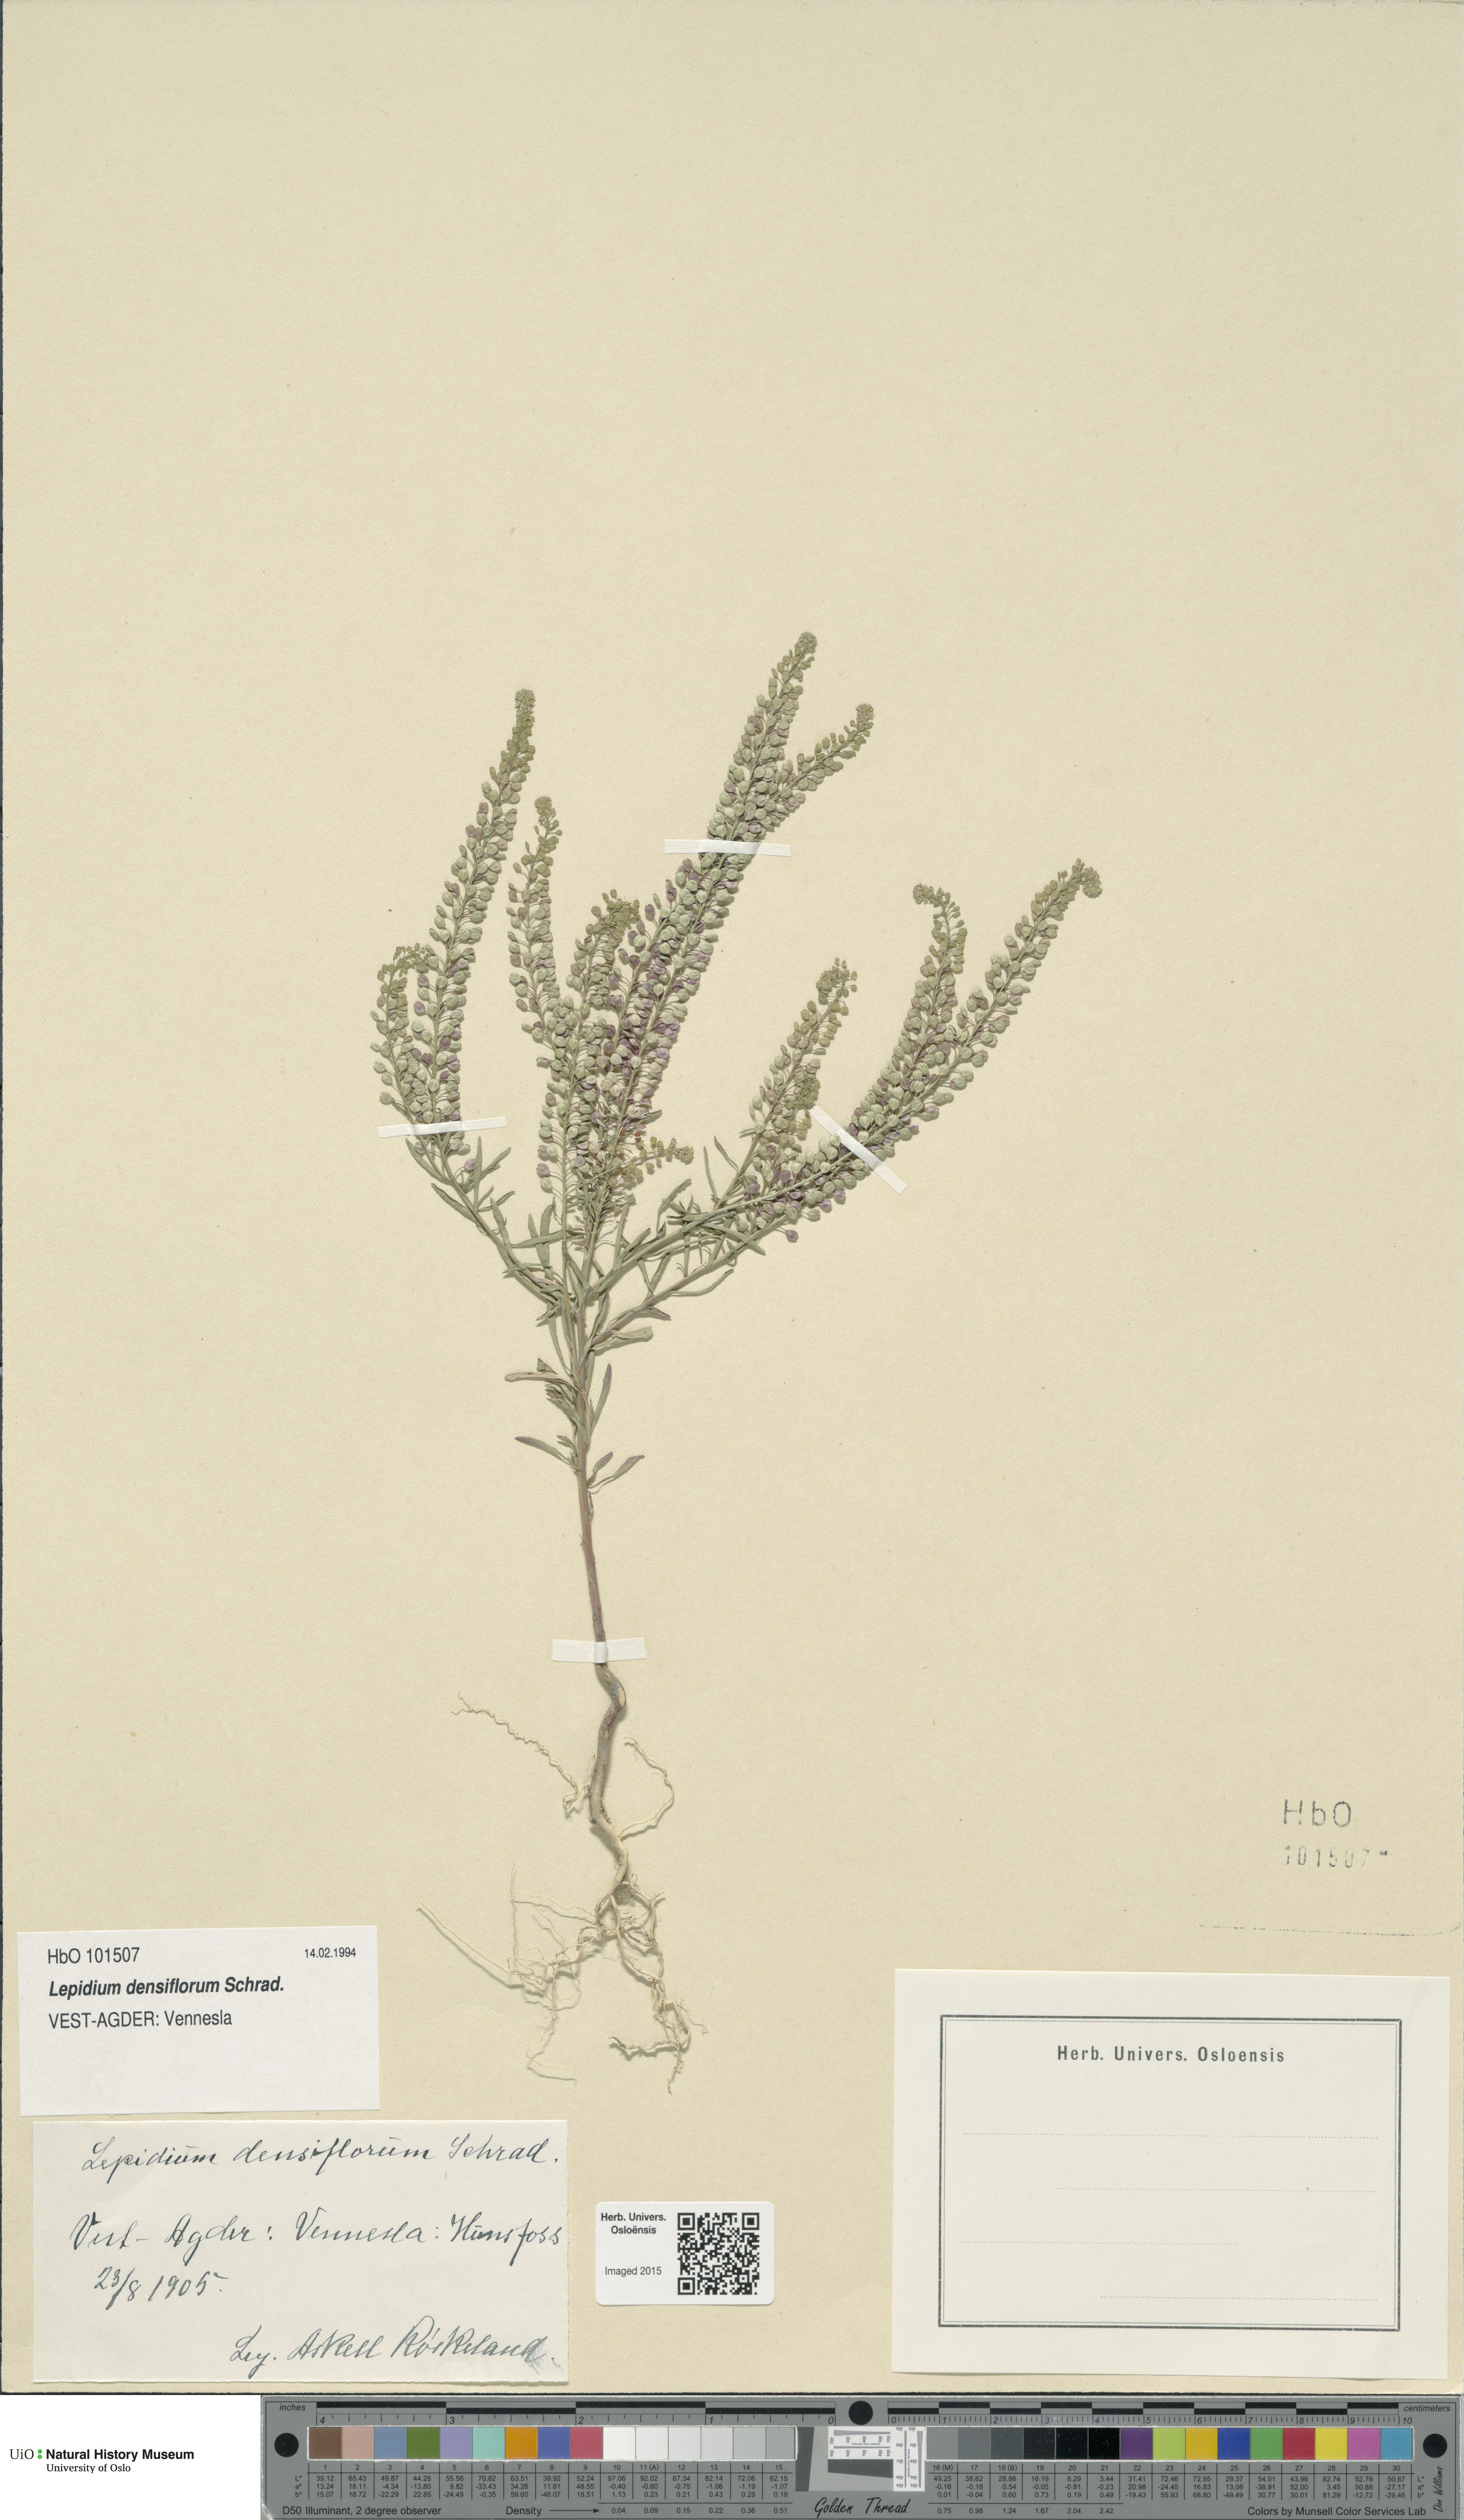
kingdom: Plantae
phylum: Tracheophyta
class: Magnoliopsida
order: Brassicales
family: Brassicaceae
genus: Lepidium
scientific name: Lepidium densiflorum
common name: Miner's pepperwort
